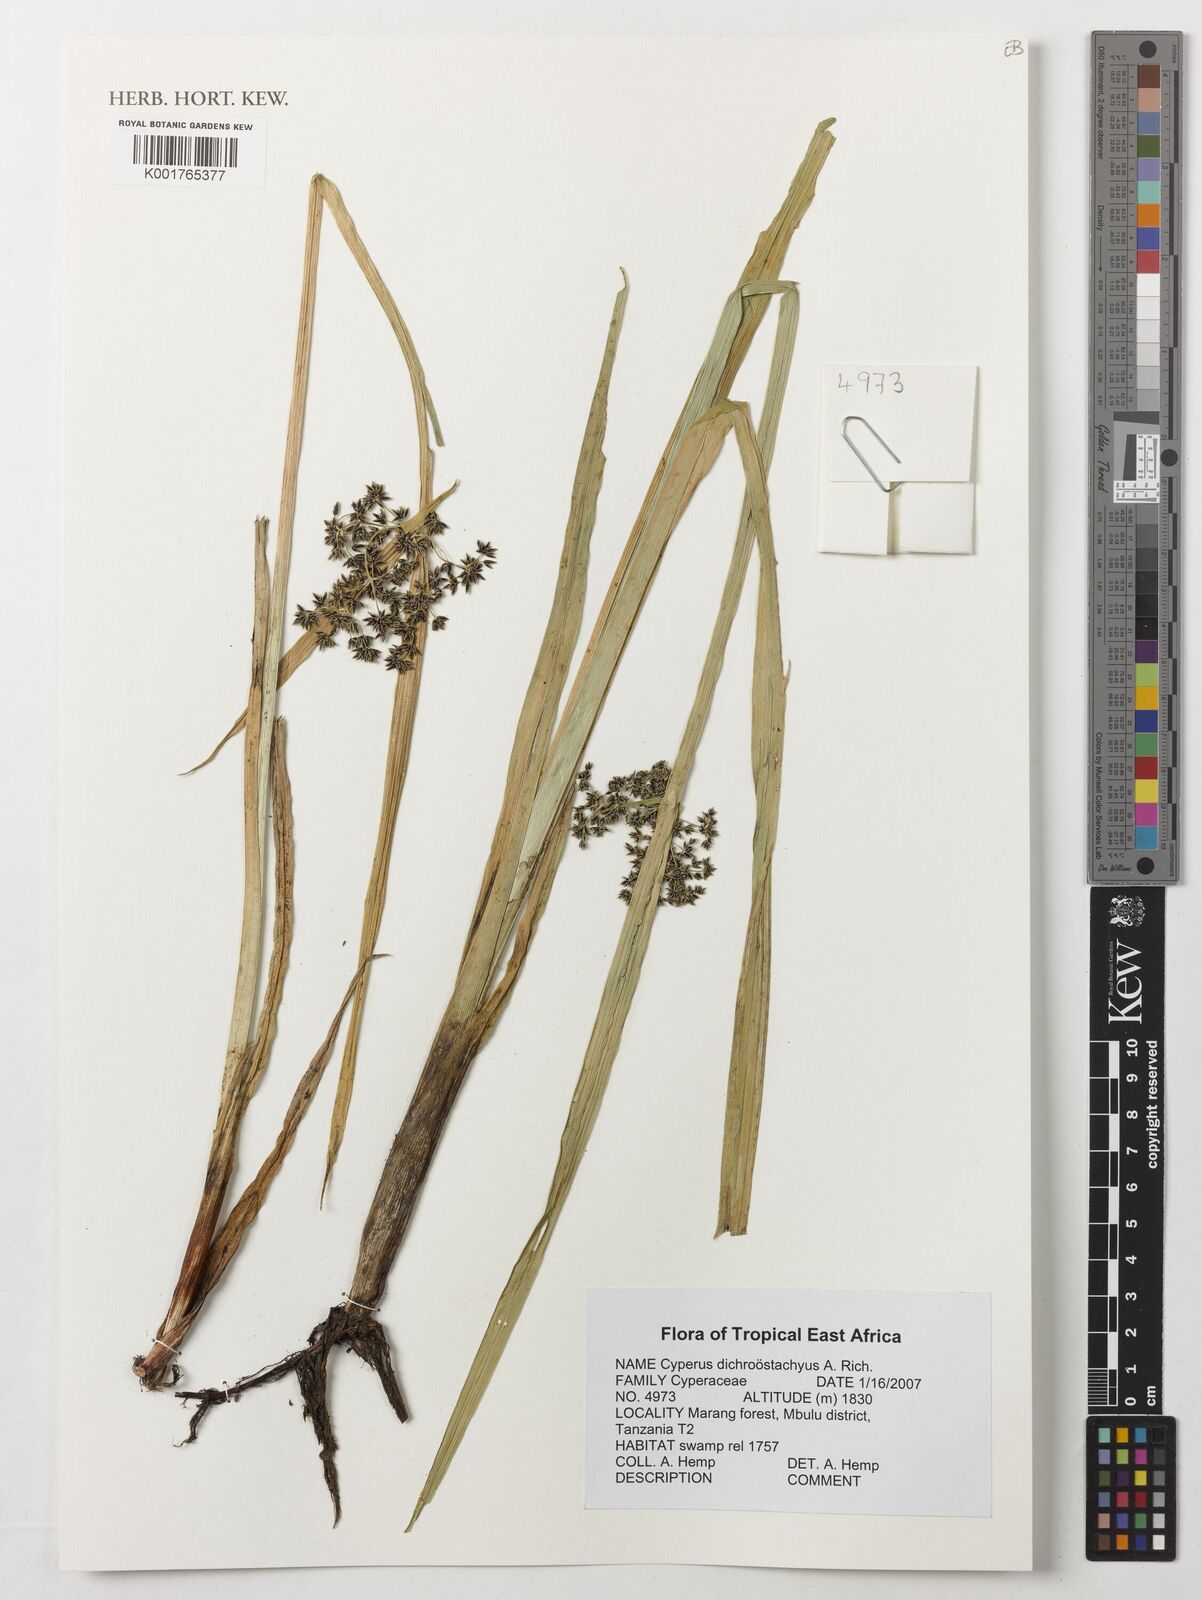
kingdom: Plantae
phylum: Tracheophyta
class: Liliopsida
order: Poales
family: Cyperaceae
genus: Cyperus
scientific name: Cyperus dichrostachyus
